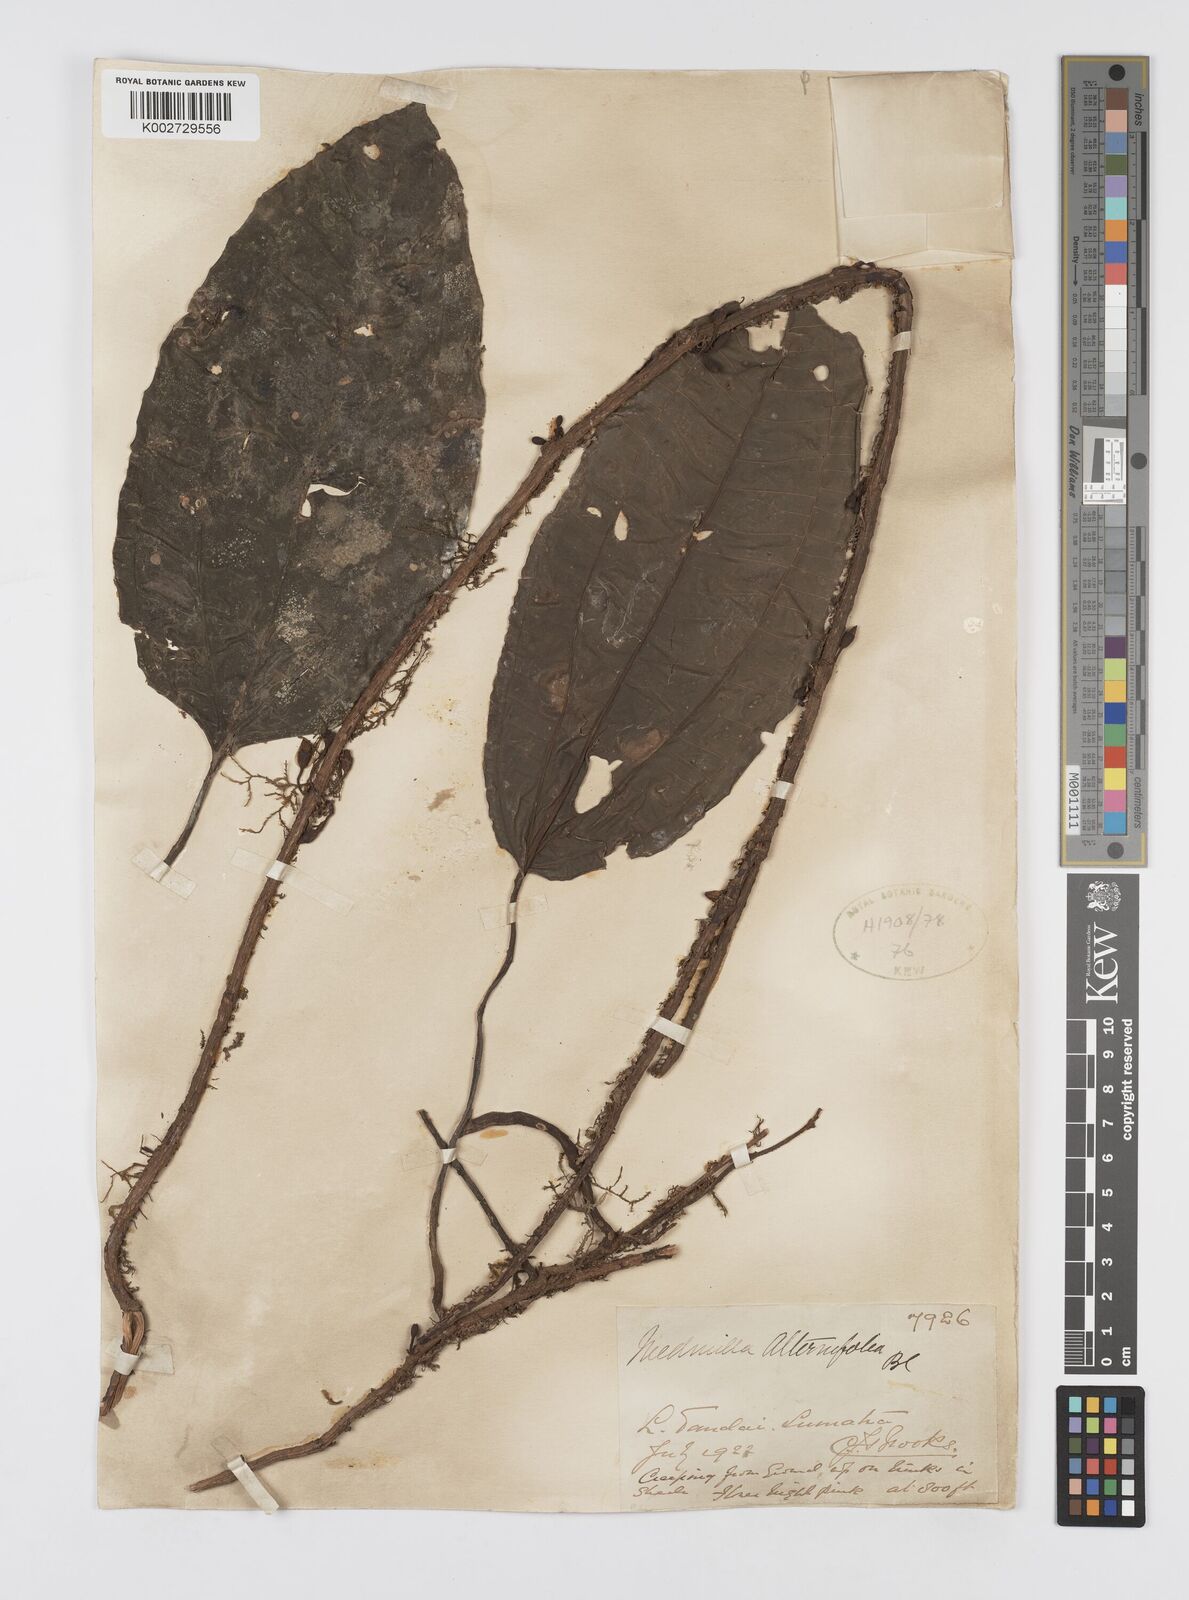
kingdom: Plantae
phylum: Tracheophyta
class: Magnoliopsida
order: Myrtales
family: Melastomataceae
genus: Heteroblemma
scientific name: Heteroblemma alternifolium
